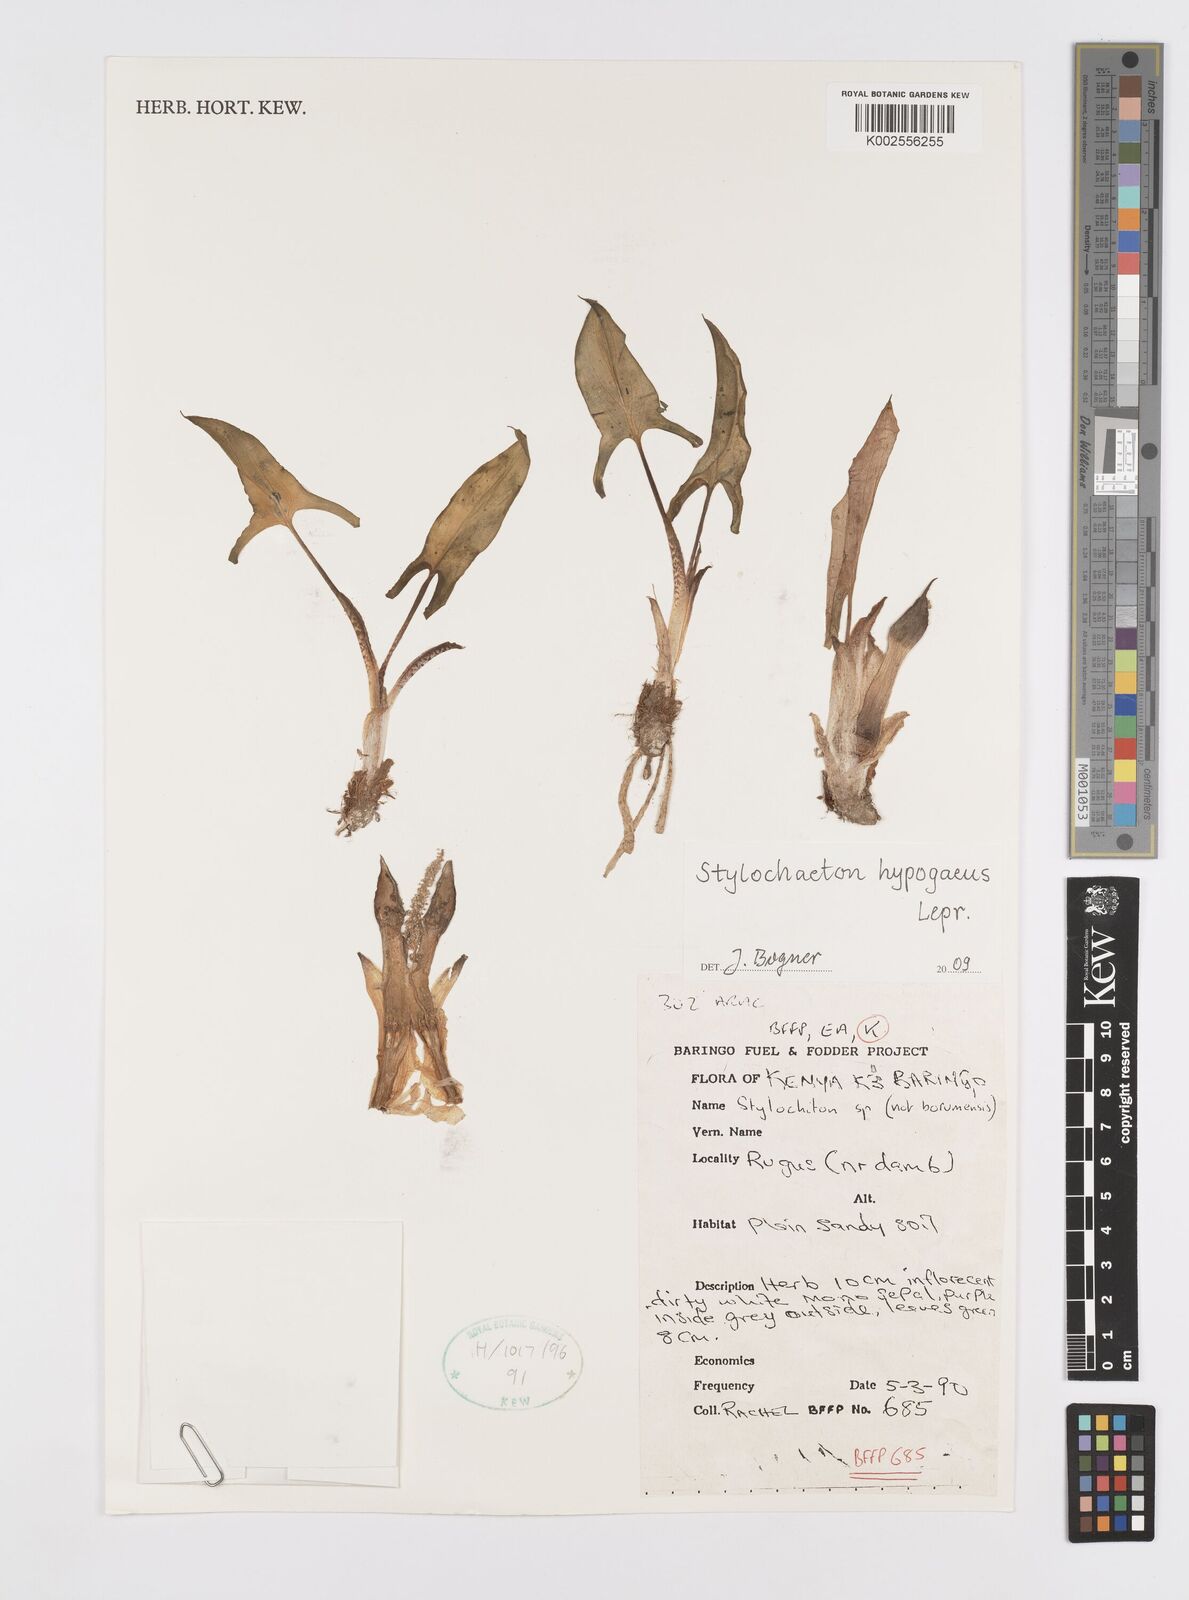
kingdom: Plantae
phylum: Tracheophyta
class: Liliopsida
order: Alismatales
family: Araceae
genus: Stylochaeton
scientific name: Stylochaeton hypogeum
